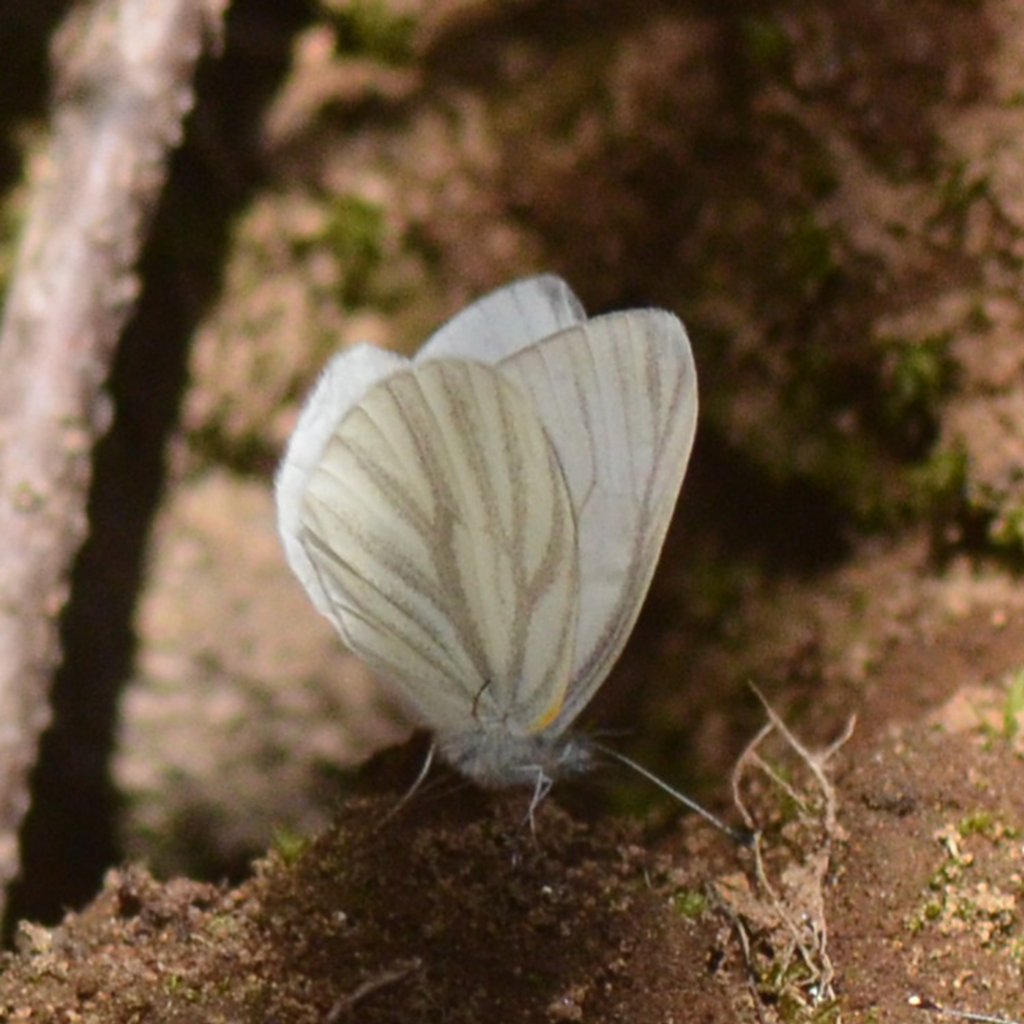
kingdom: Animalia
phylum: Arthropoda
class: Insecta
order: Lepidoptera
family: Pieridae
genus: Pieris
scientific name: Pieris virginiensis
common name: West Virginia White
